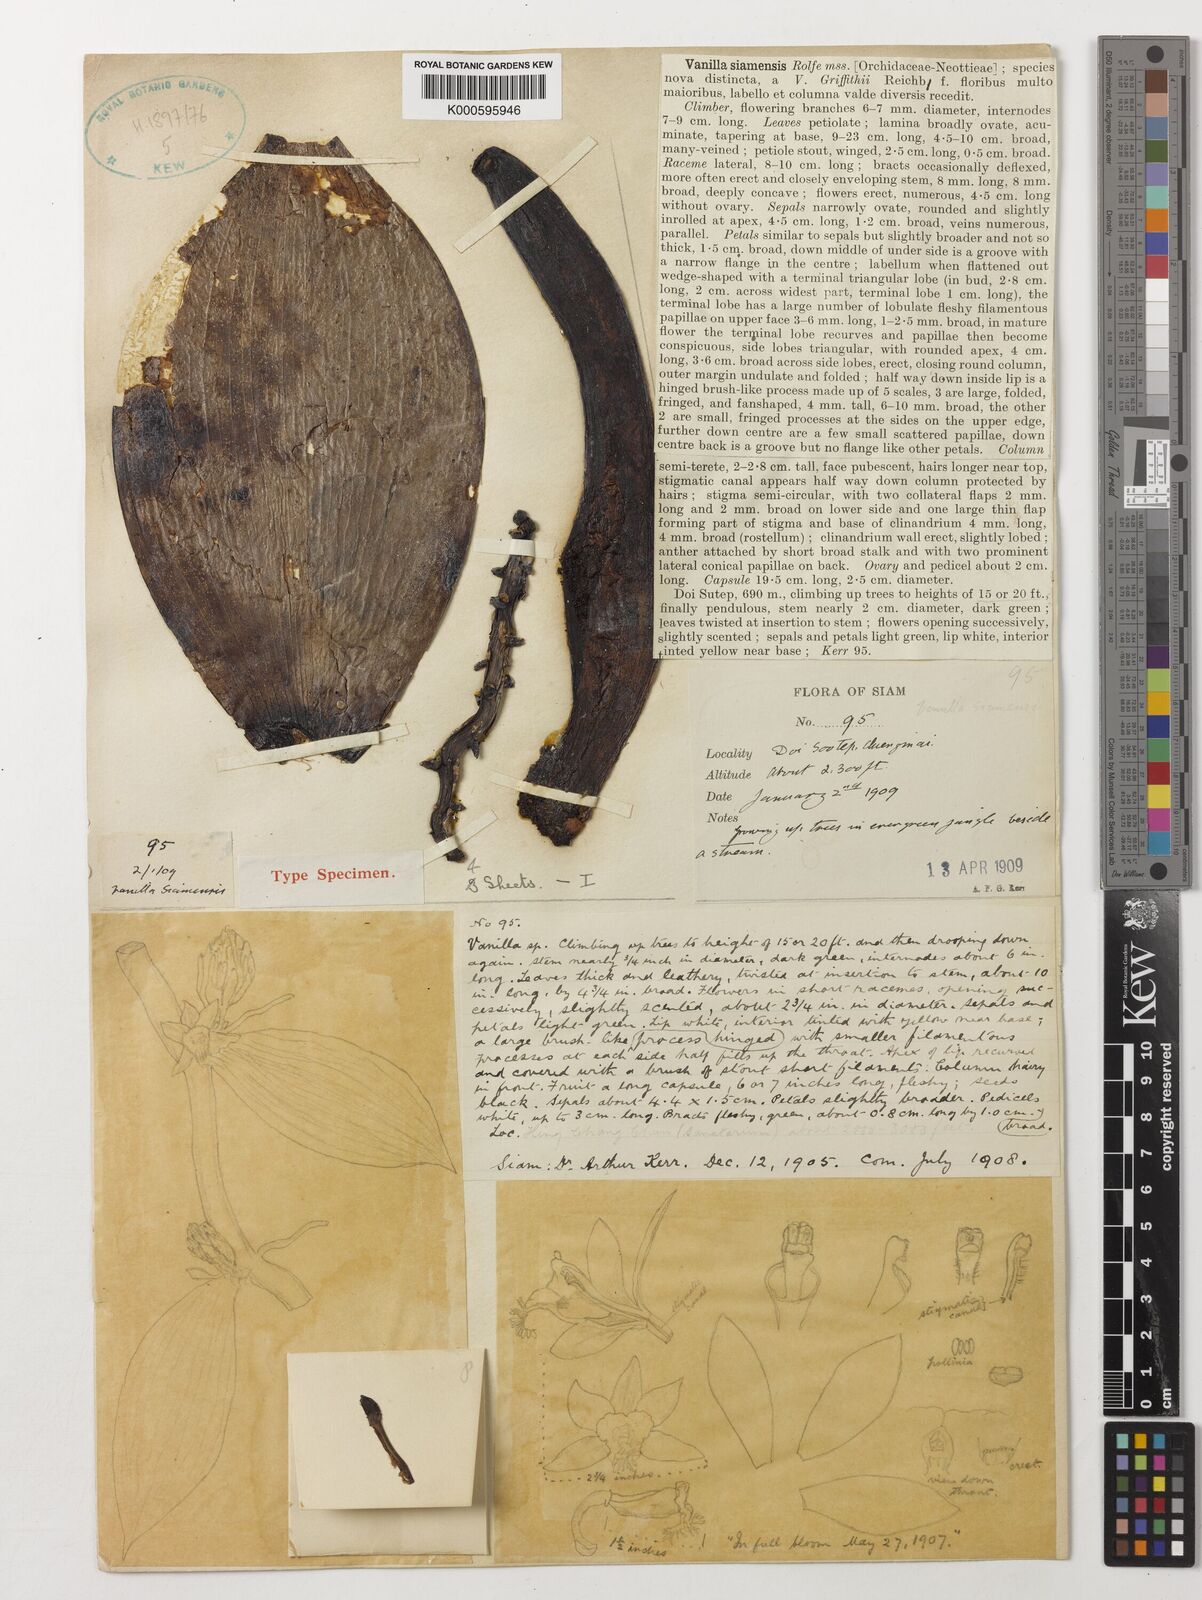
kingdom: Plantae
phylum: Tracheophyta
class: Liliopsida
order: Asparagales
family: Orchidaceae
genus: Vanilla
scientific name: Vanilla siamensis
